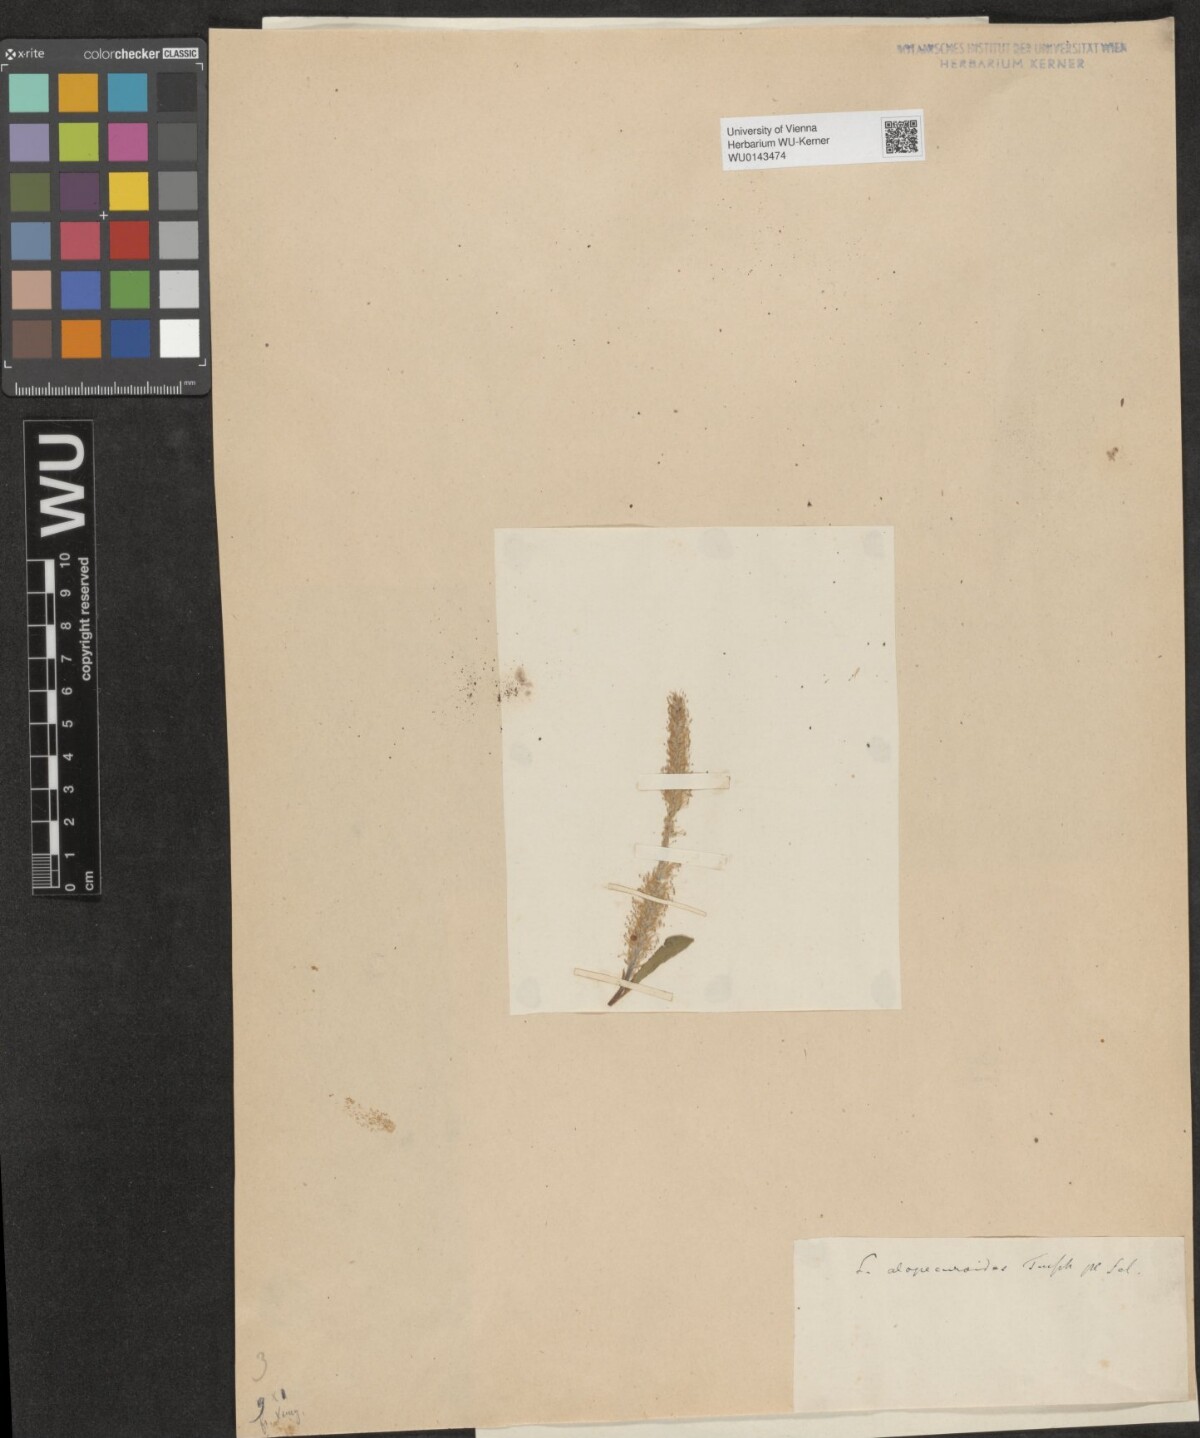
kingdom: Plantae
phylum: Tracheophyta
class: Magnoliopsida
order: Malpighiales
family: Salicaceae
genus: Salix
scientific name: Salix subtriandra
